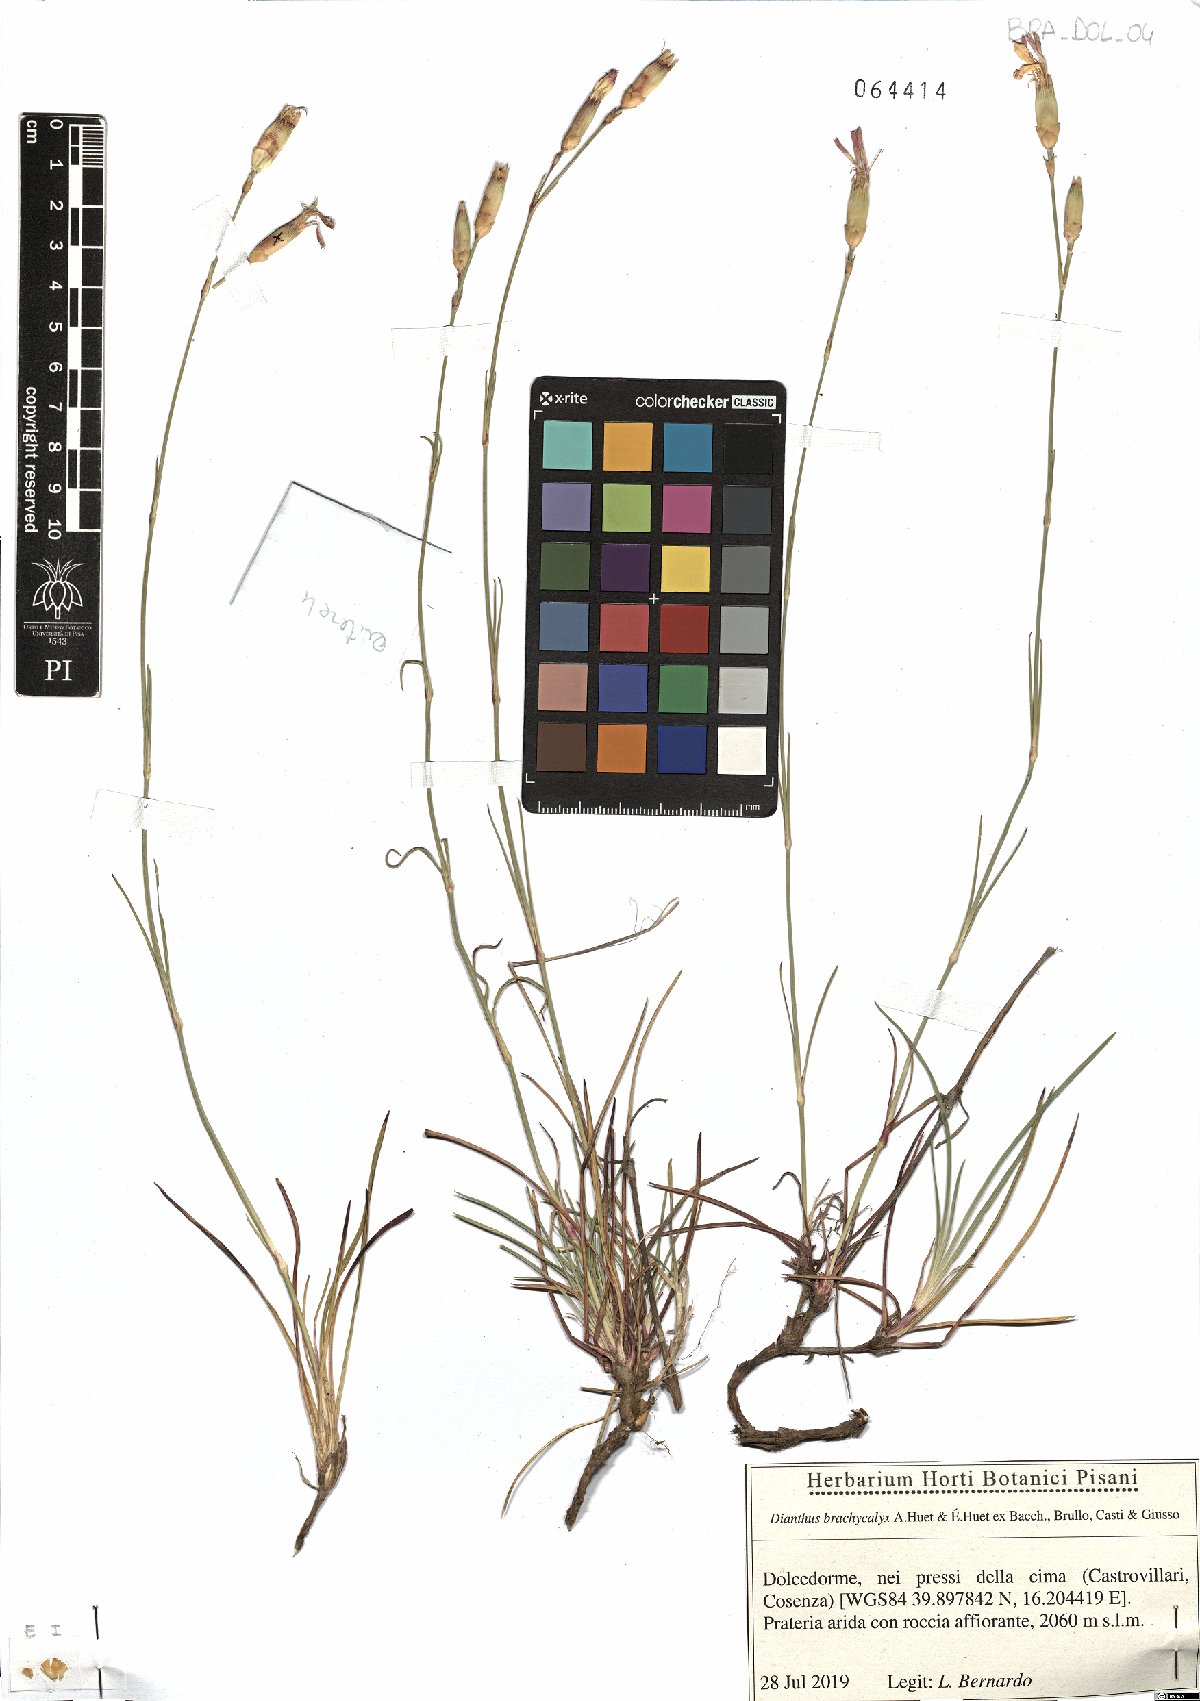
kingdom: Plantae
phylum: Tracheophyta
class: Magnoliopsida
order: Caryophyllales
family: Caryophyllaceae
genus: Dianthus
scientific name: Dianthus brachycalyx
